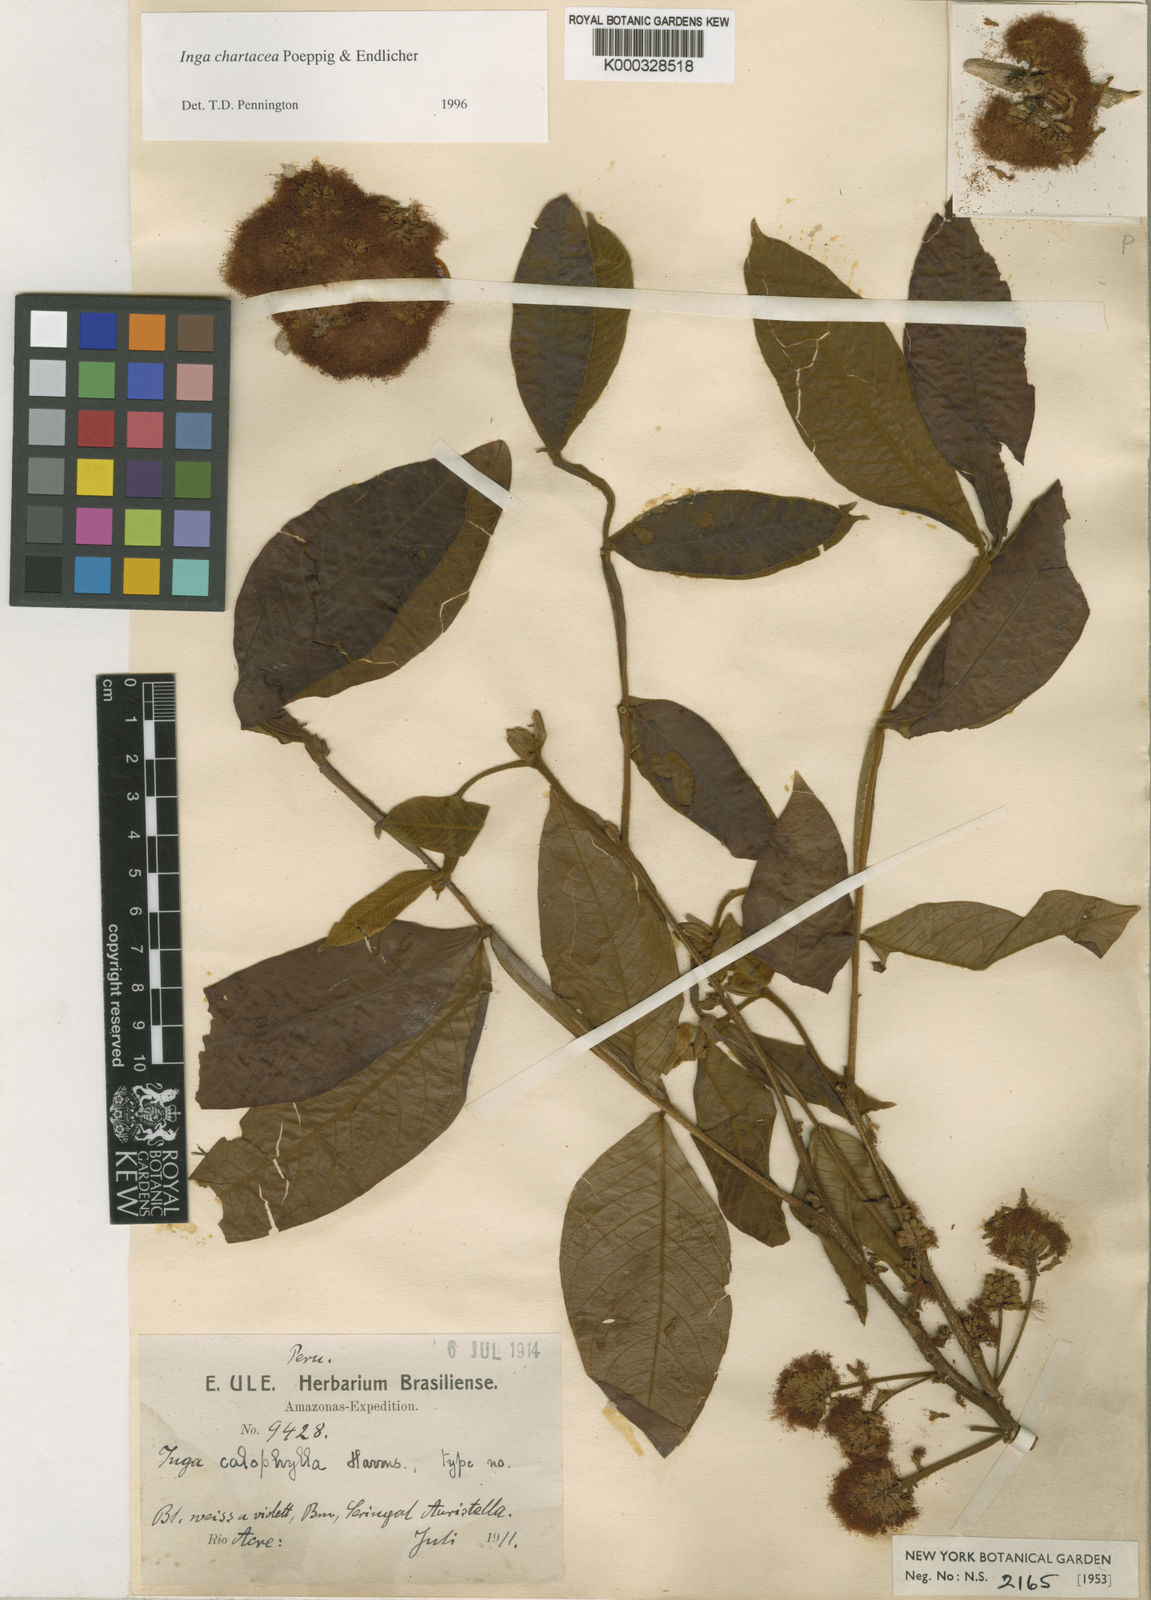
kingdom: Plantae
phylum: Tracheophyta
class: Magnoliopsida
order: Fabales
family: Fabaceae
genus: Inga
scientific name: Inga chartacea
